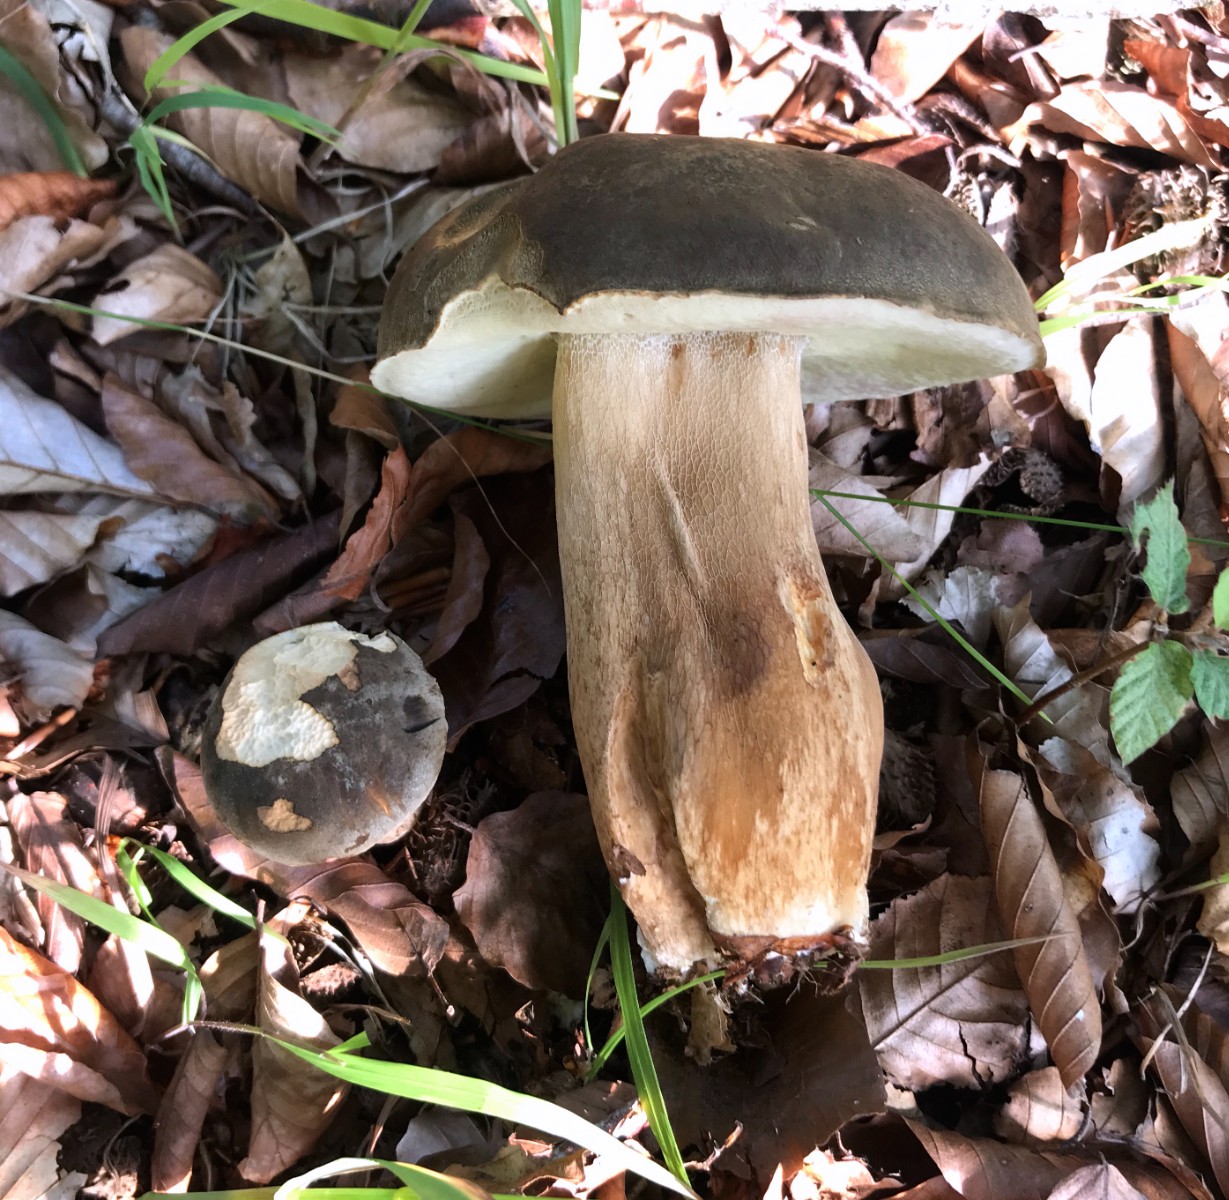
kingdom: Fungi
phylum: Basidiomycota
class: Agaricomycetes
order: Boletales
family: Boletaceae
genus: Boletus
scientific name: Boletus edulis
